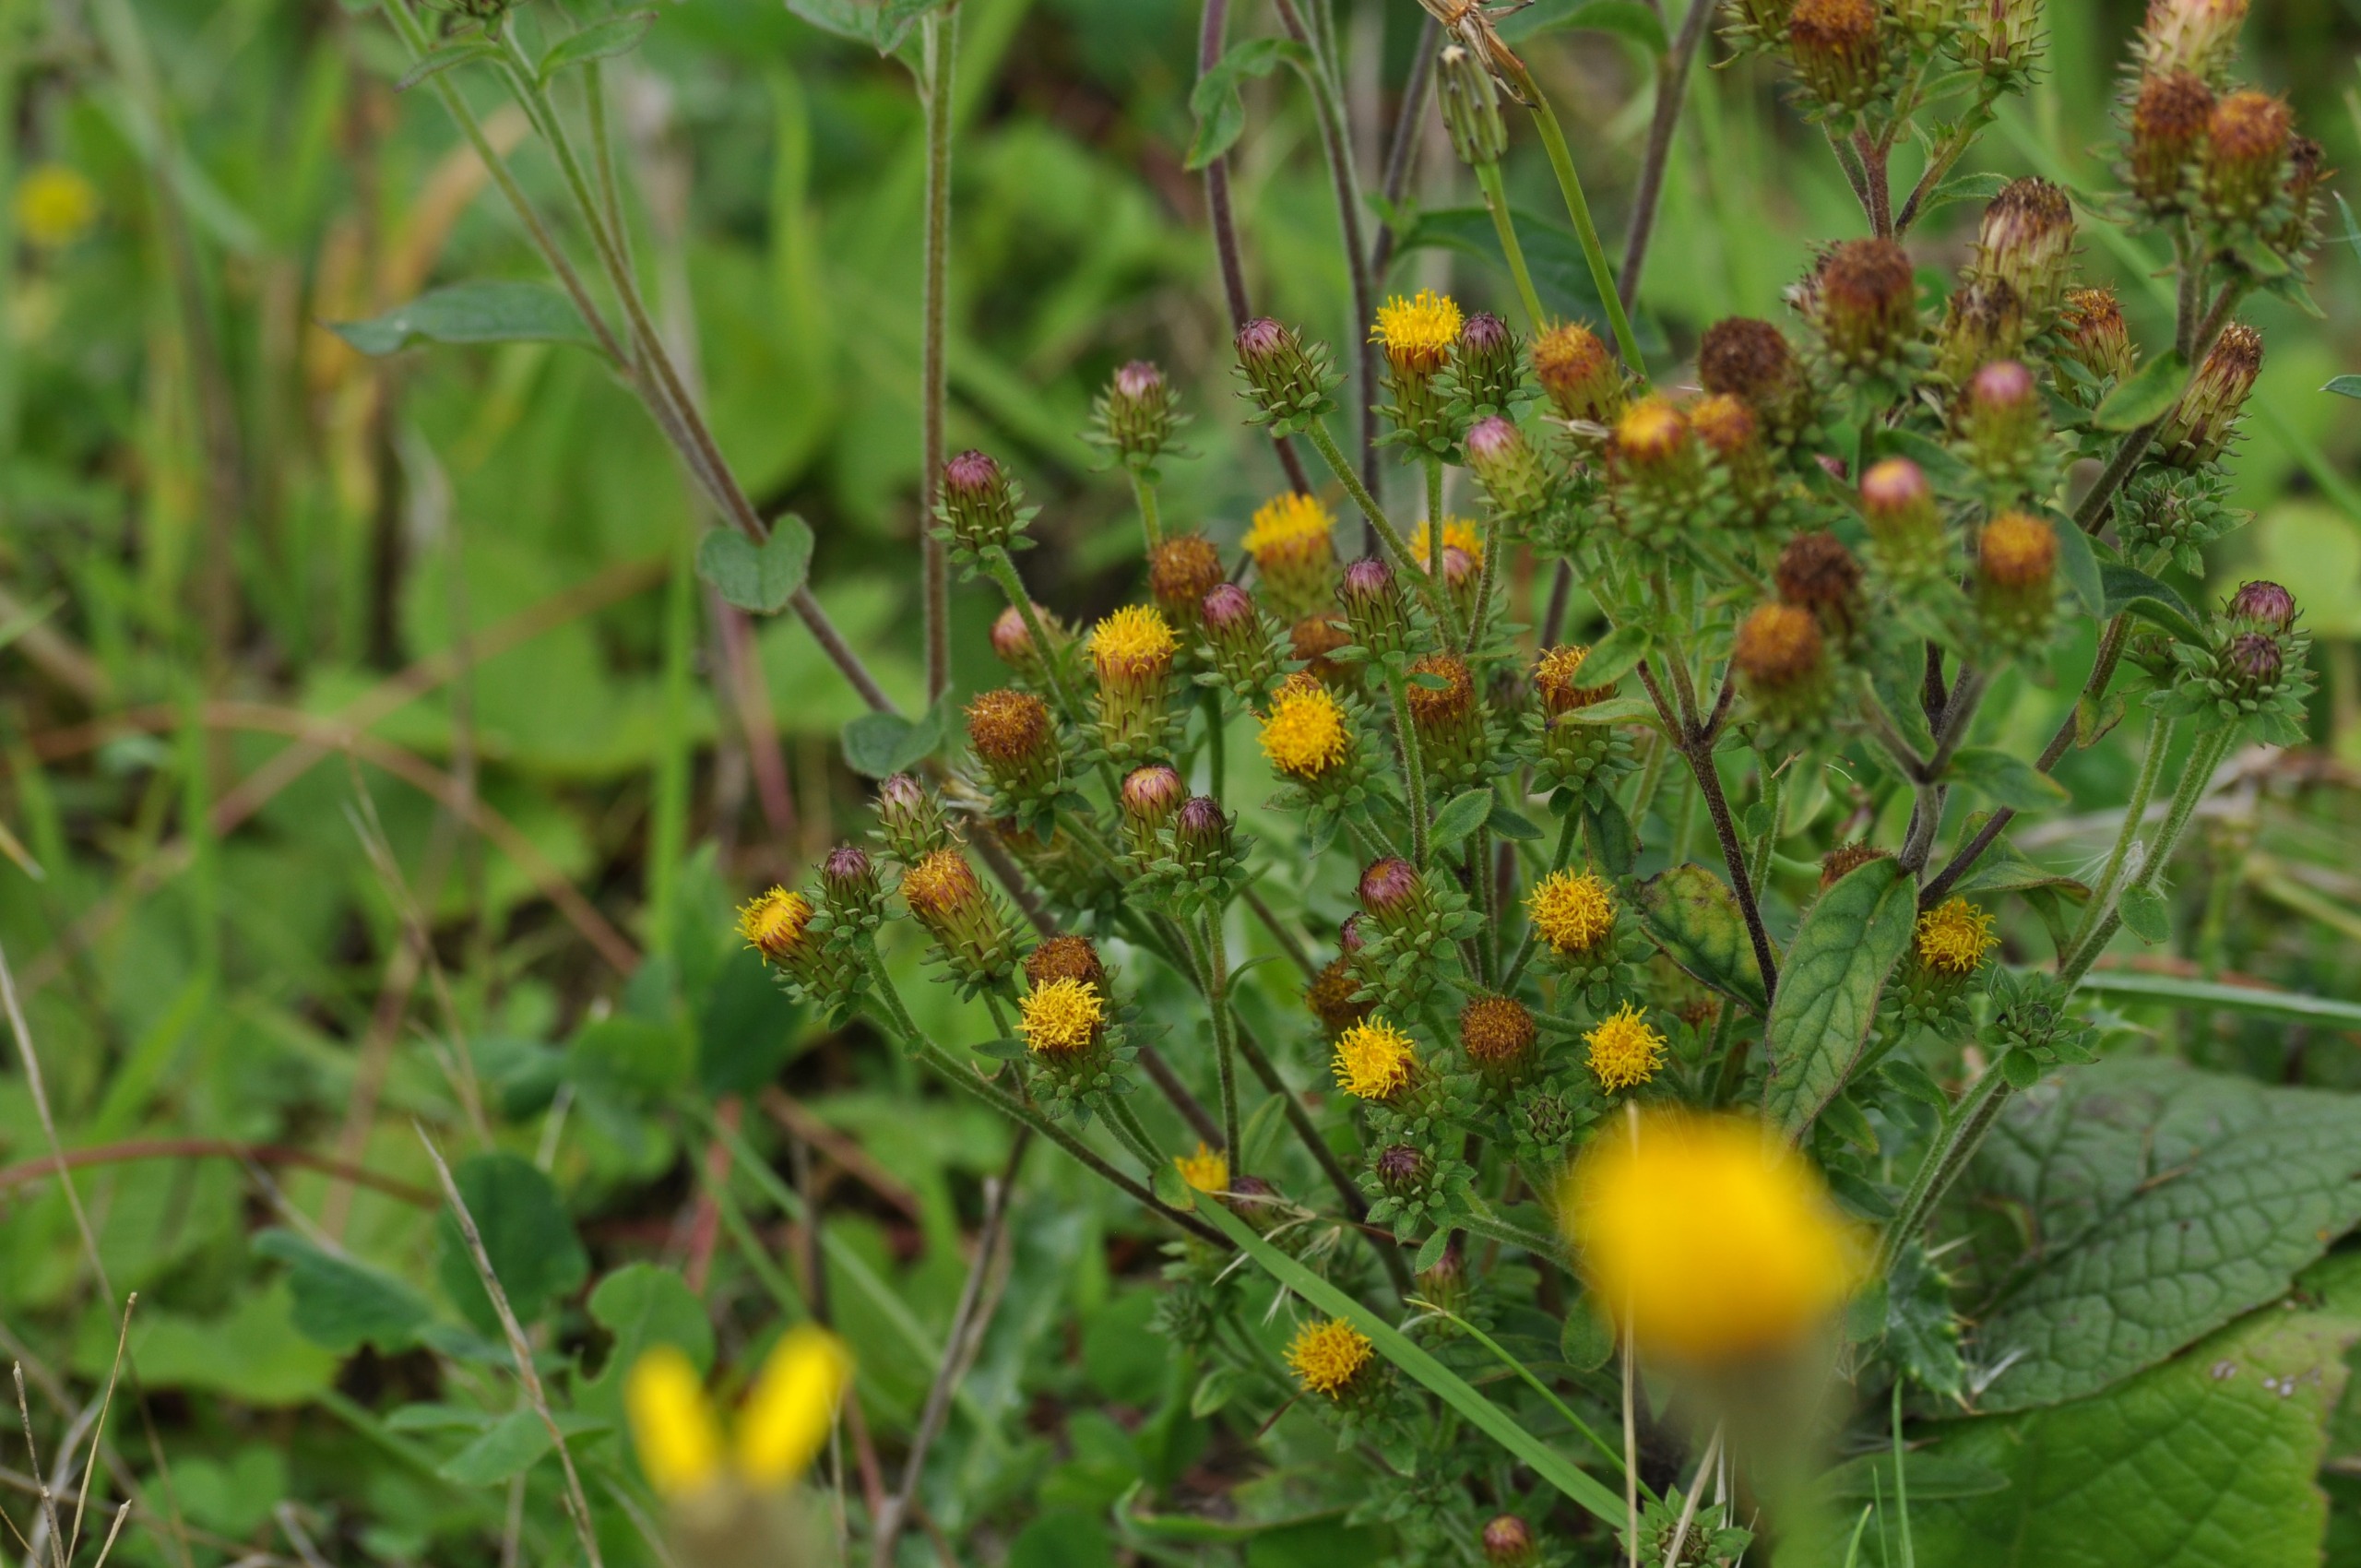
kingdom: Plantae
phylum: Tracheophyta
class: Magnoliopsida
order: Asterales
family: Asteraceae
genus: Pentanema
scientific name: Pentanema squarrosum
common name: Trekløft-alant
